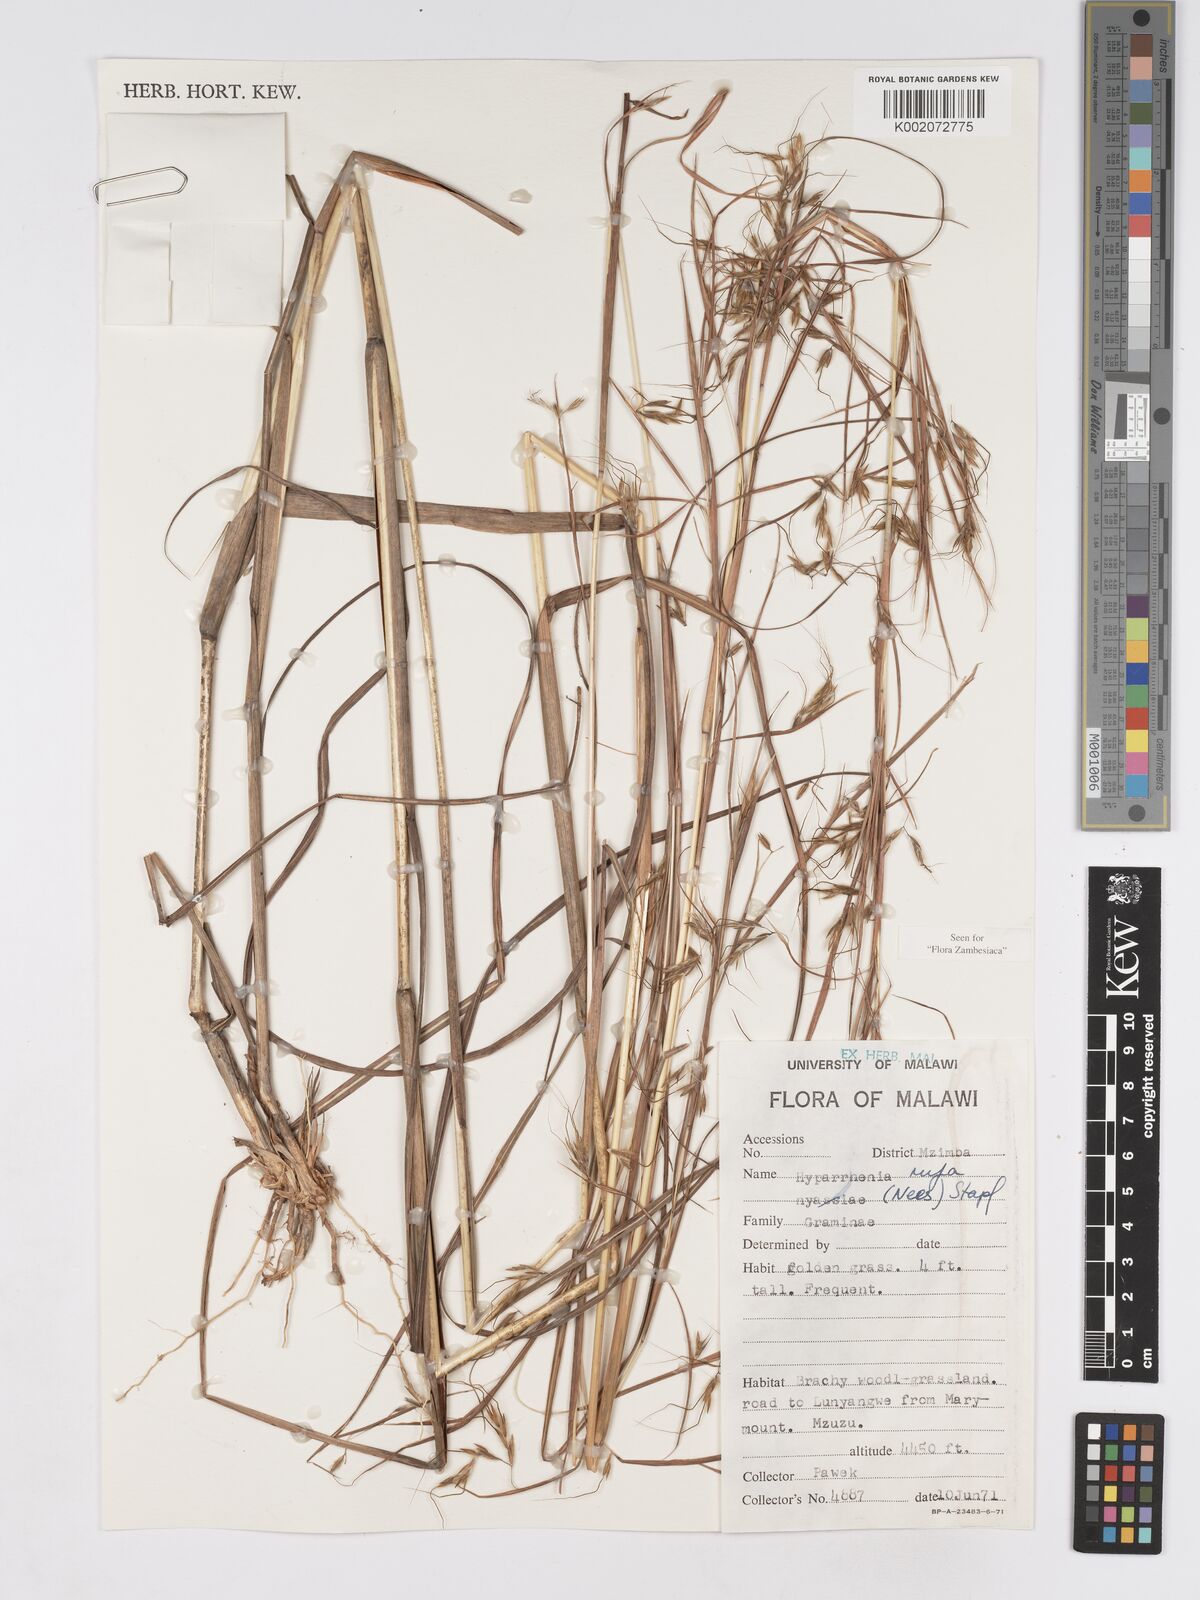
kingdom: Plantae
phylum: Tracheophyta
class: Liliopsida
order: Poales
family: Poaceae
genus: Hyparrhenia
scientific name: Hyparrhenia rufa
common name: Jaraguagrass
